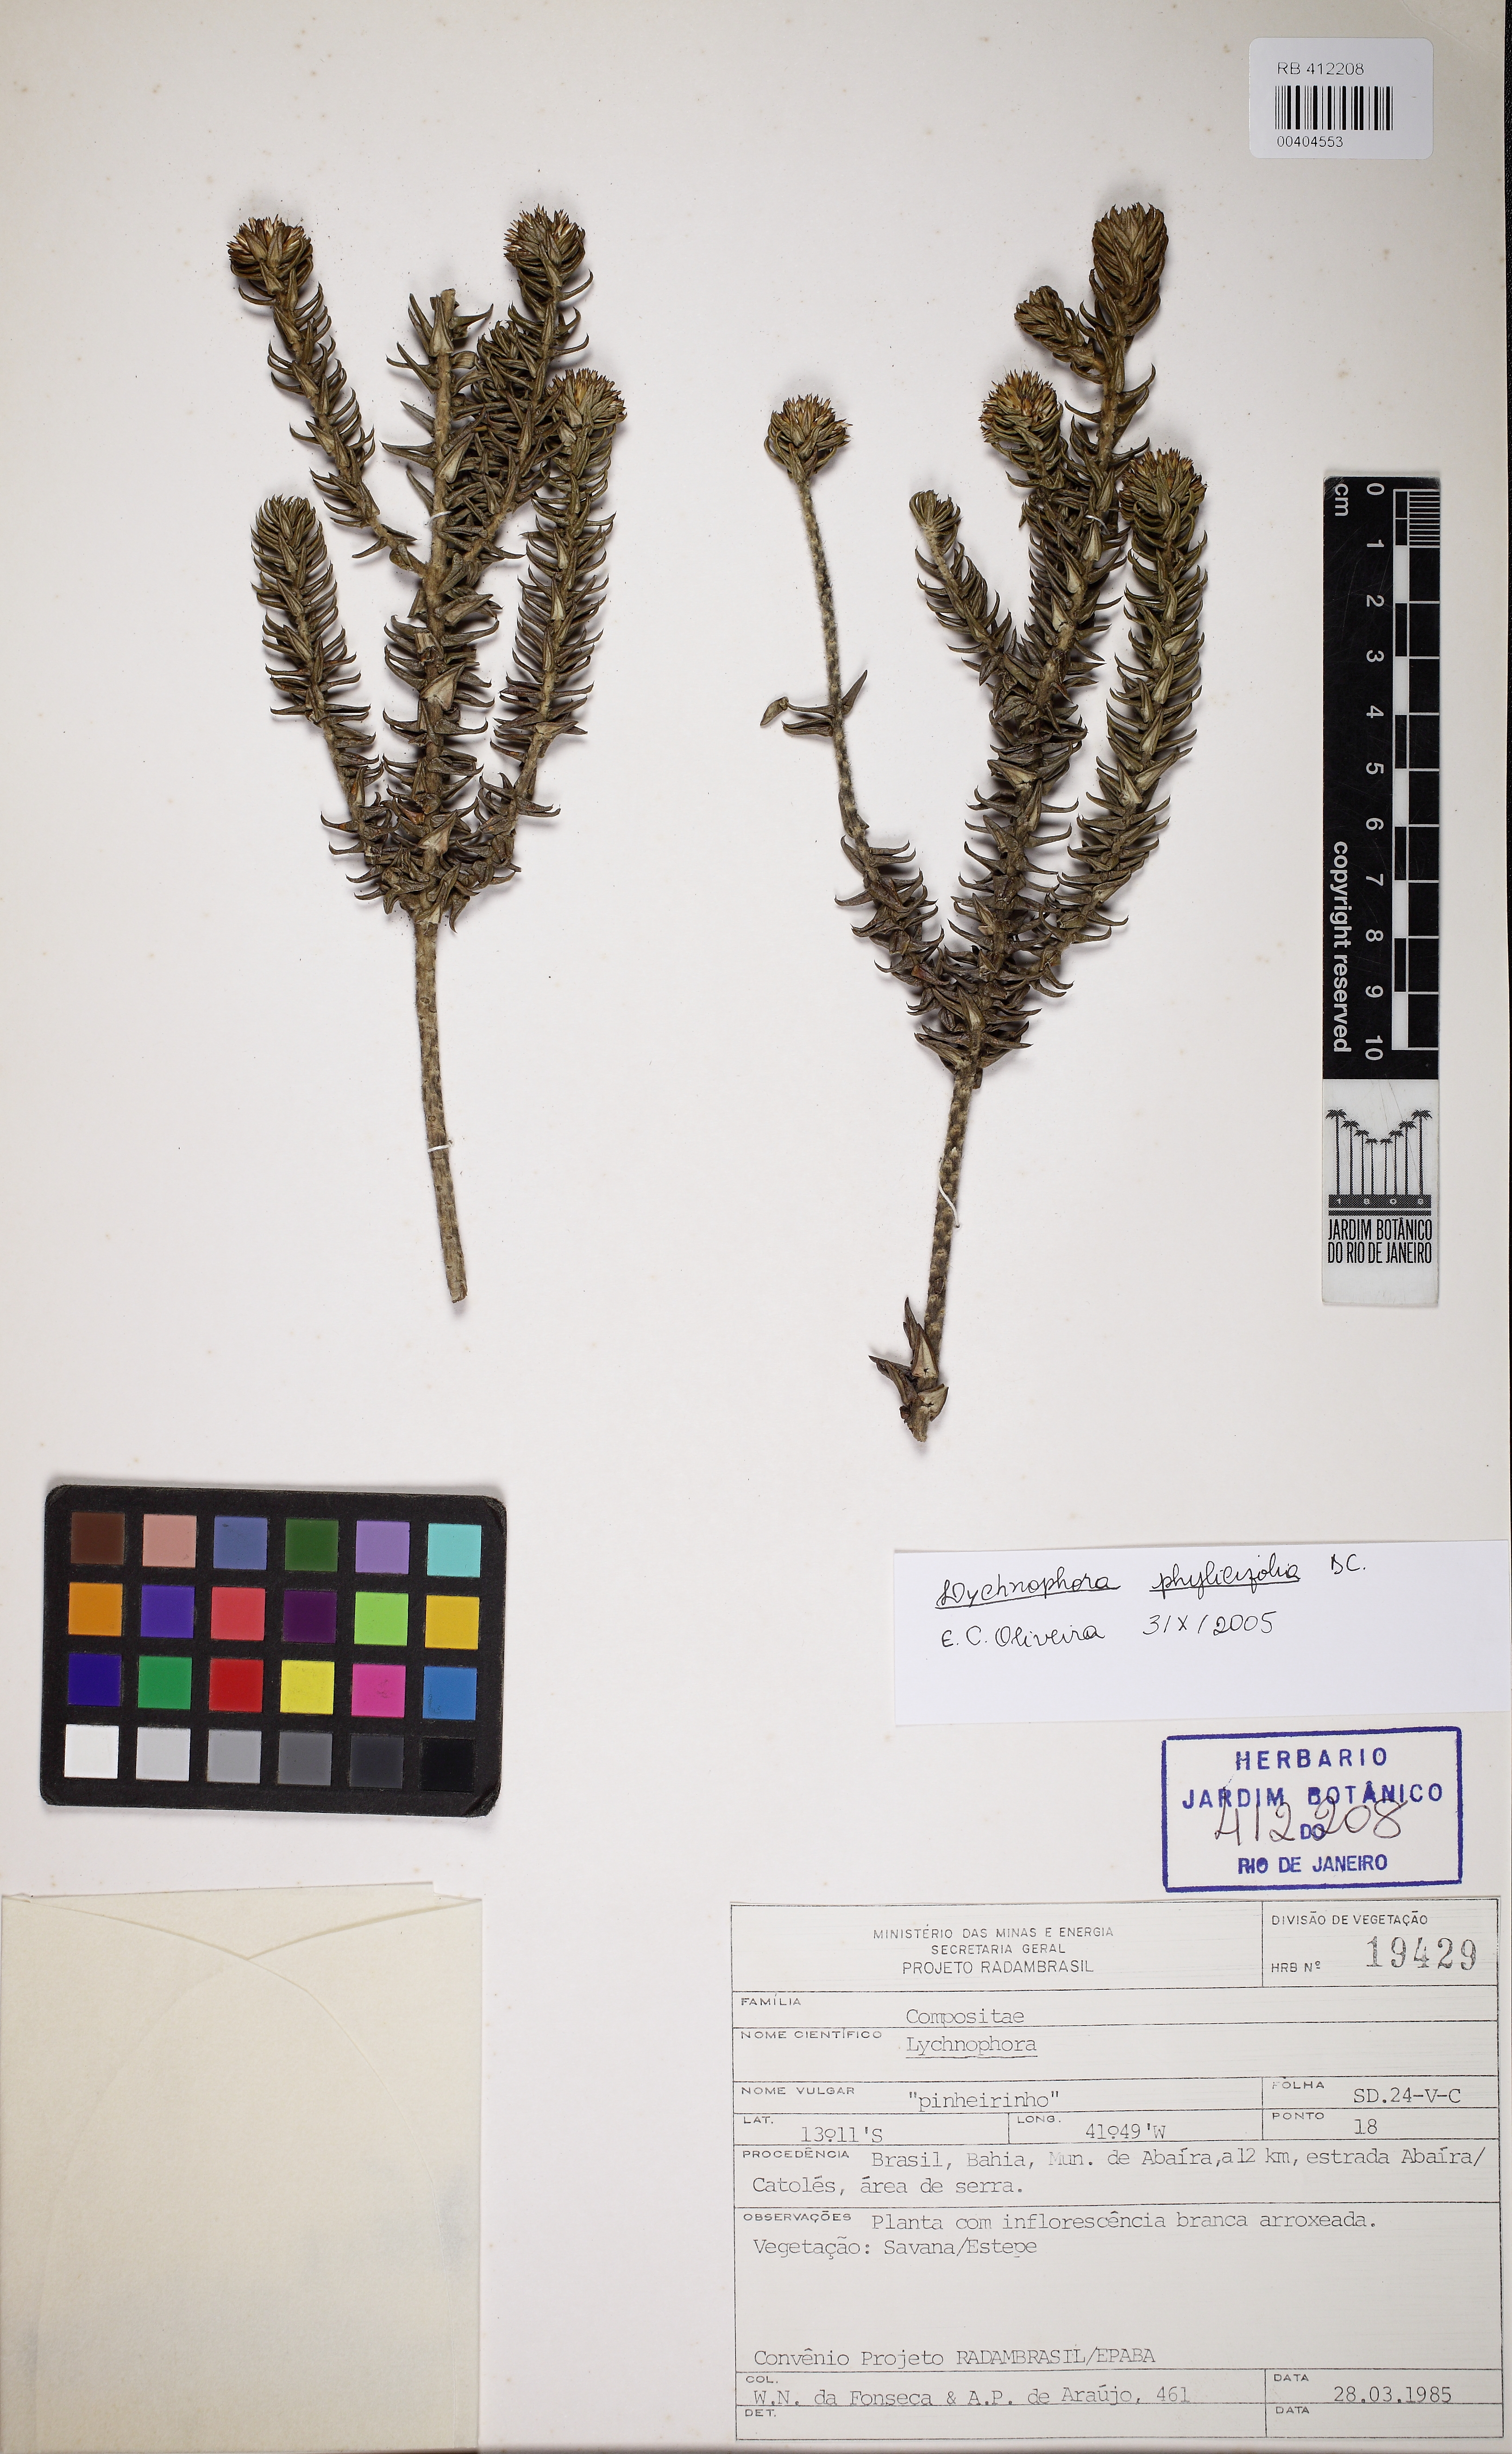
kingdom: Plantae
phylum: Tracheophyta
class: Magnoliopsida
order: Asterales
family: Asteraceae
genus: Lychnophora
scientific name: Lychnophora granmogolensis
